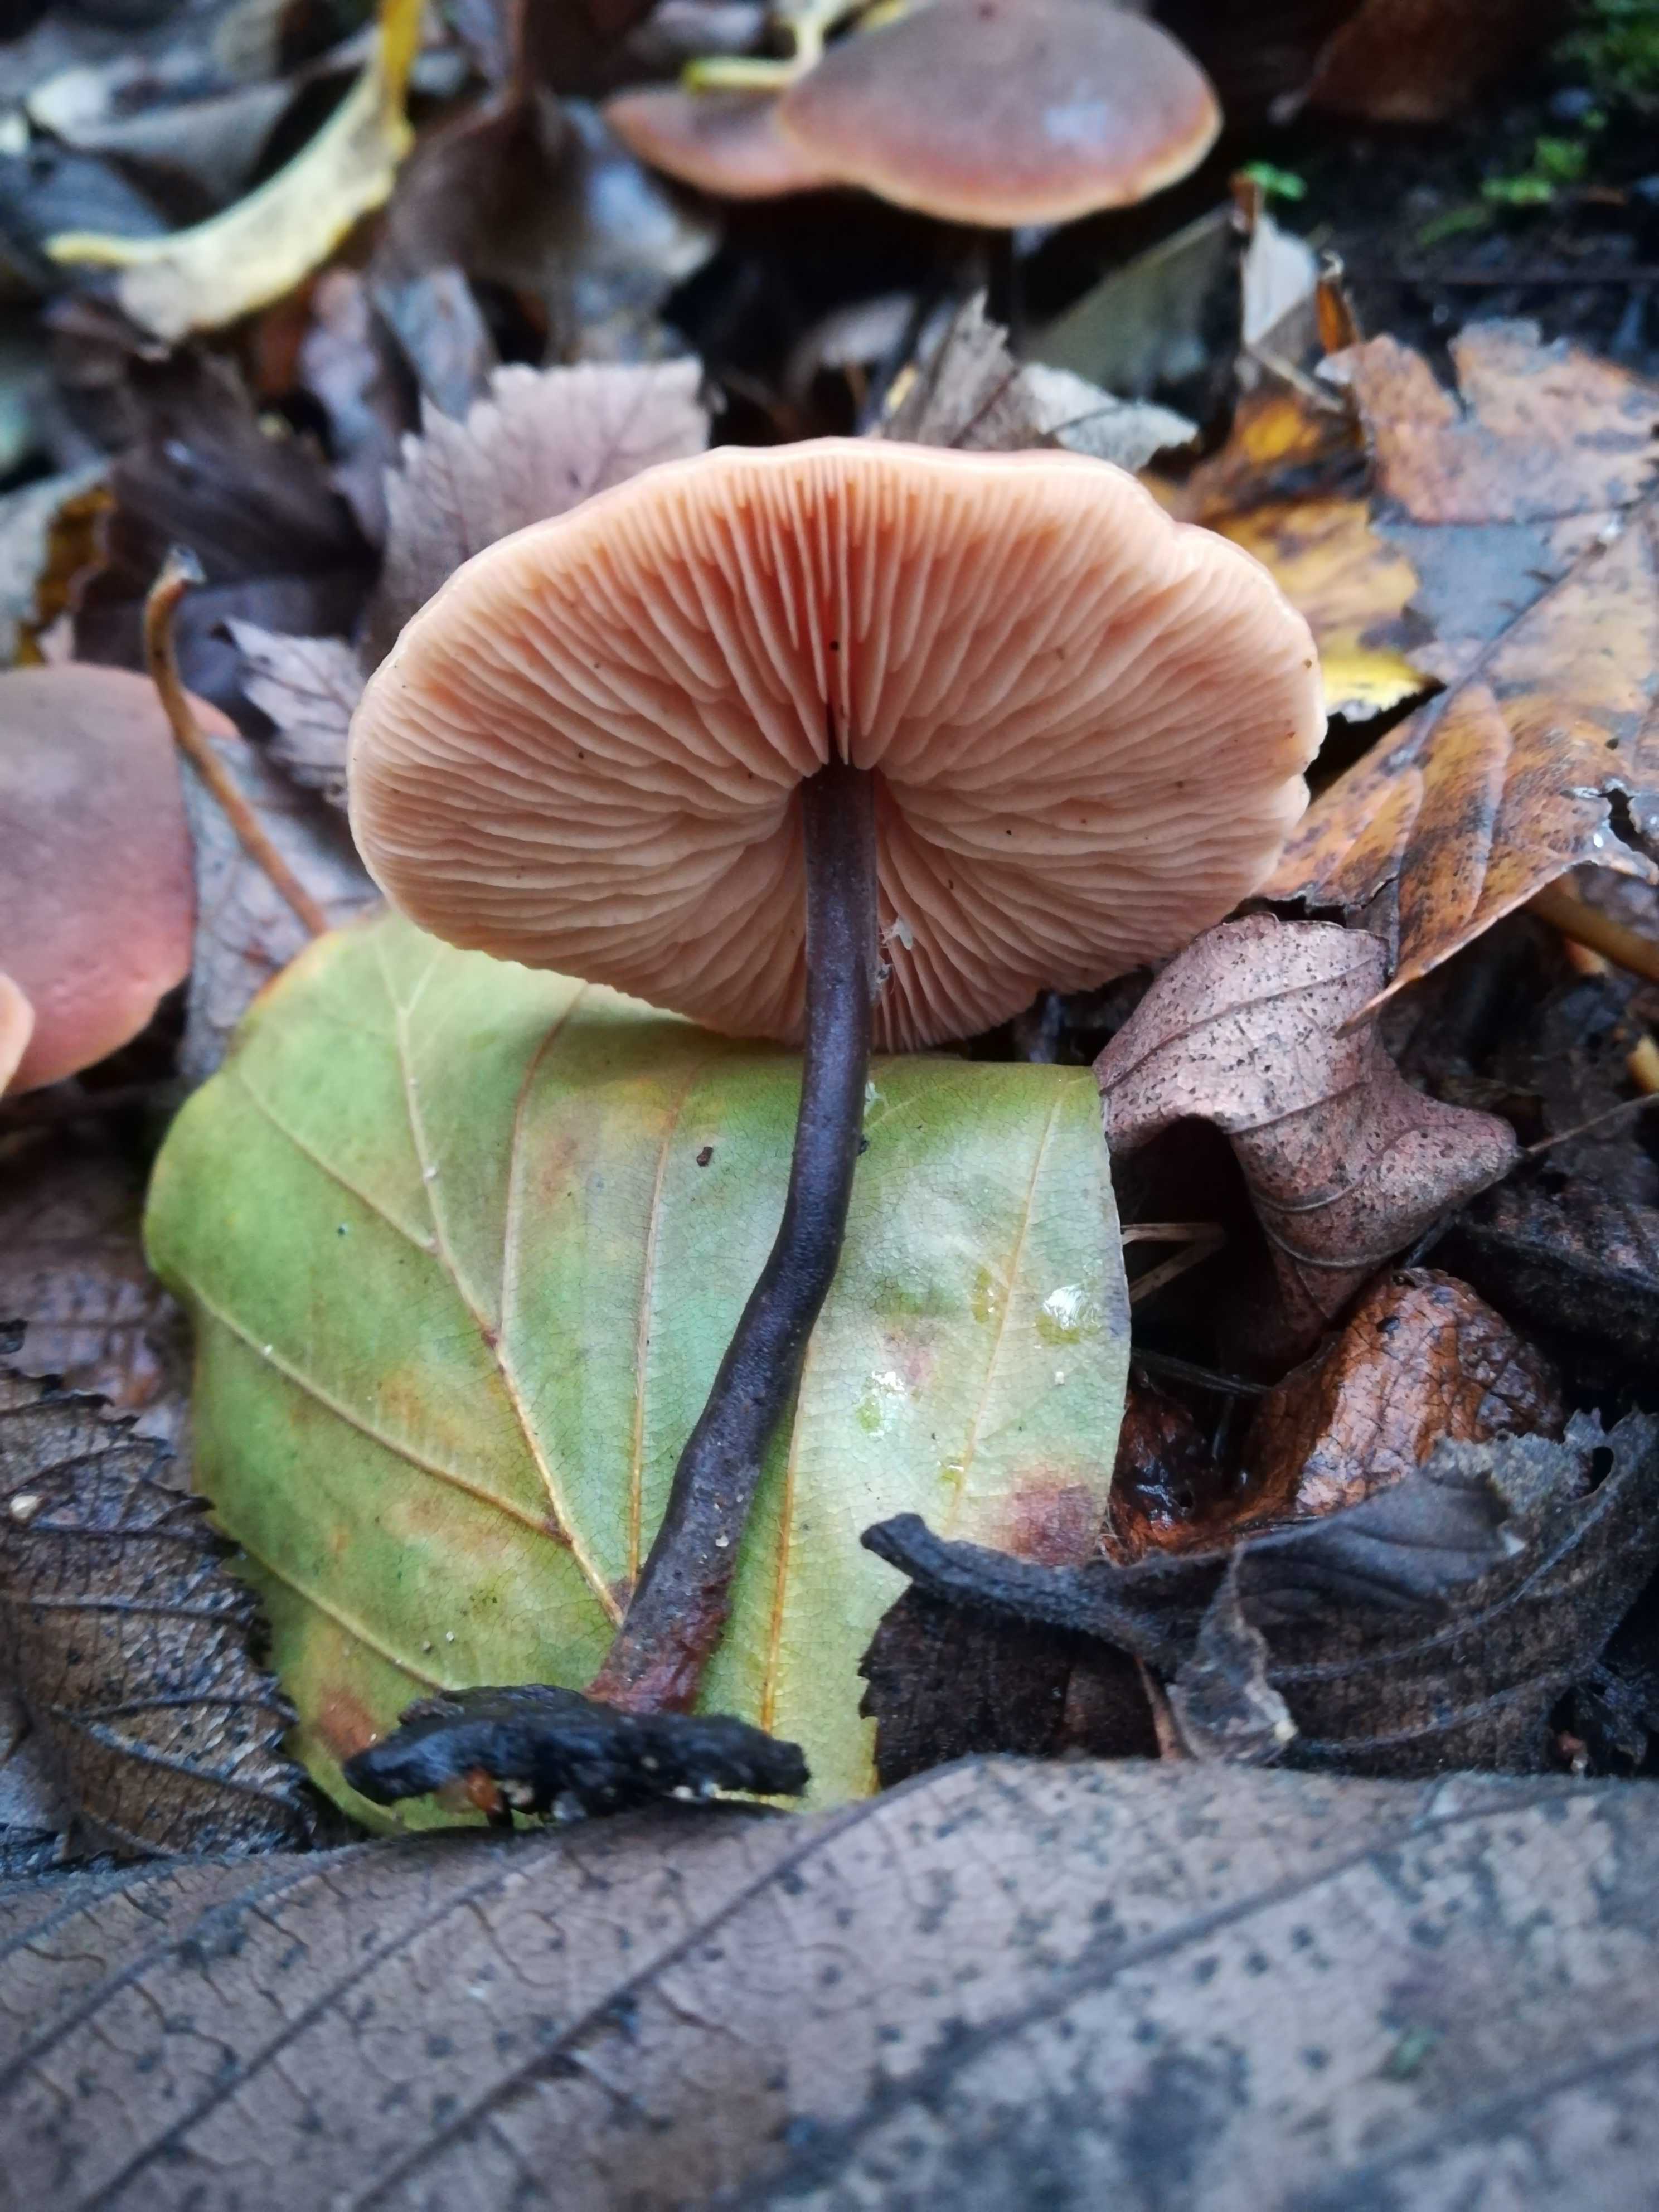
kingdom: Fungi
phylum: Basidiomycota
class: Agaricomycetes
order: Agaricales
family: Macrocystidiaceae
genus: Macrocystidia
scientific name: Macrocystidia cucumis
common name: agurkehat
